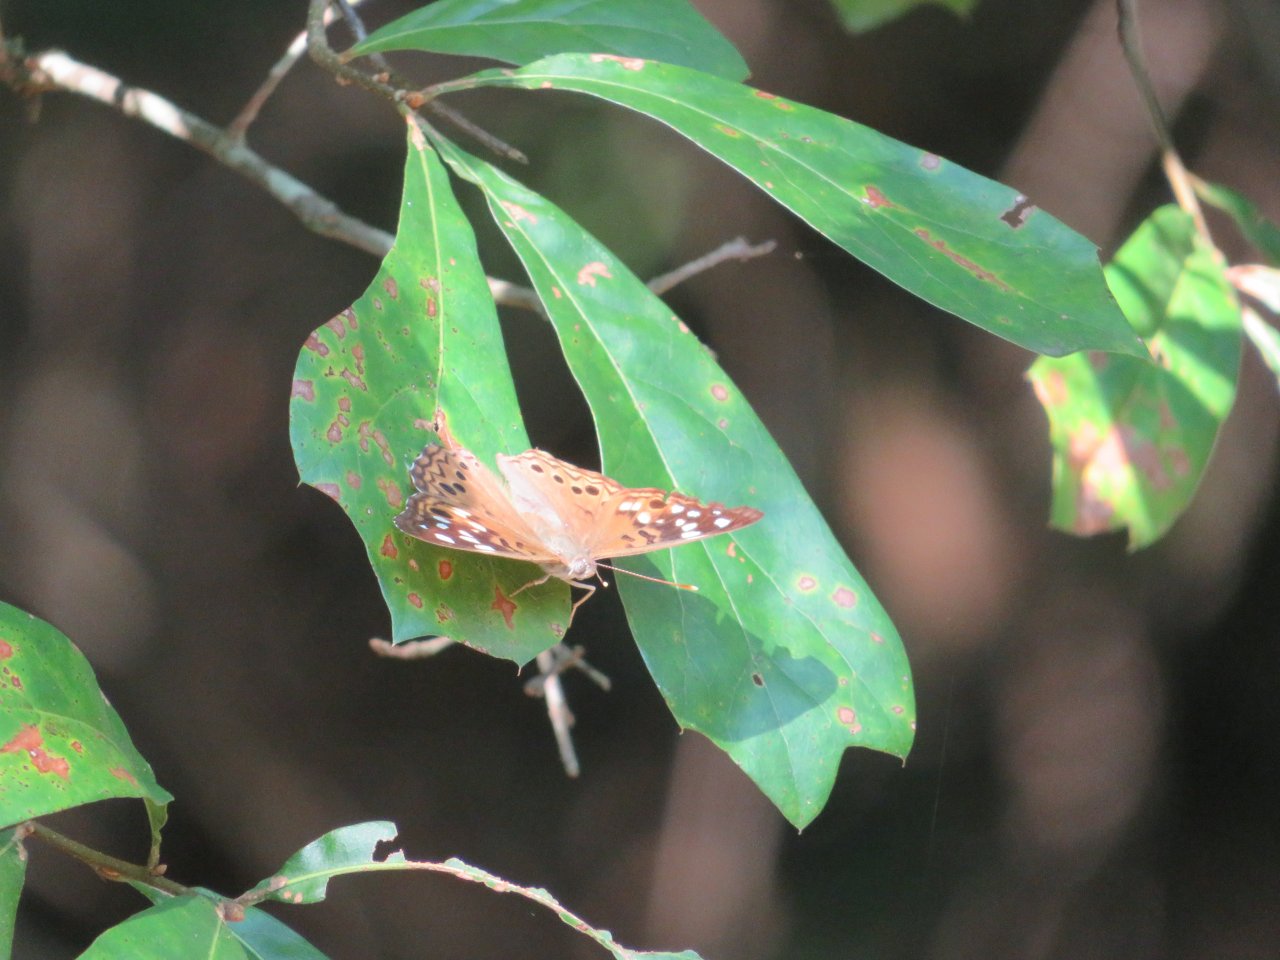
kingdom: Animalia
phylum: Arthropoda
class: Insecta
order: Lepidoptera
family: Nymphalidae
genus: Asterocampa
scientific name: Asterocampa celtis
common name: Hackberry Emperor
